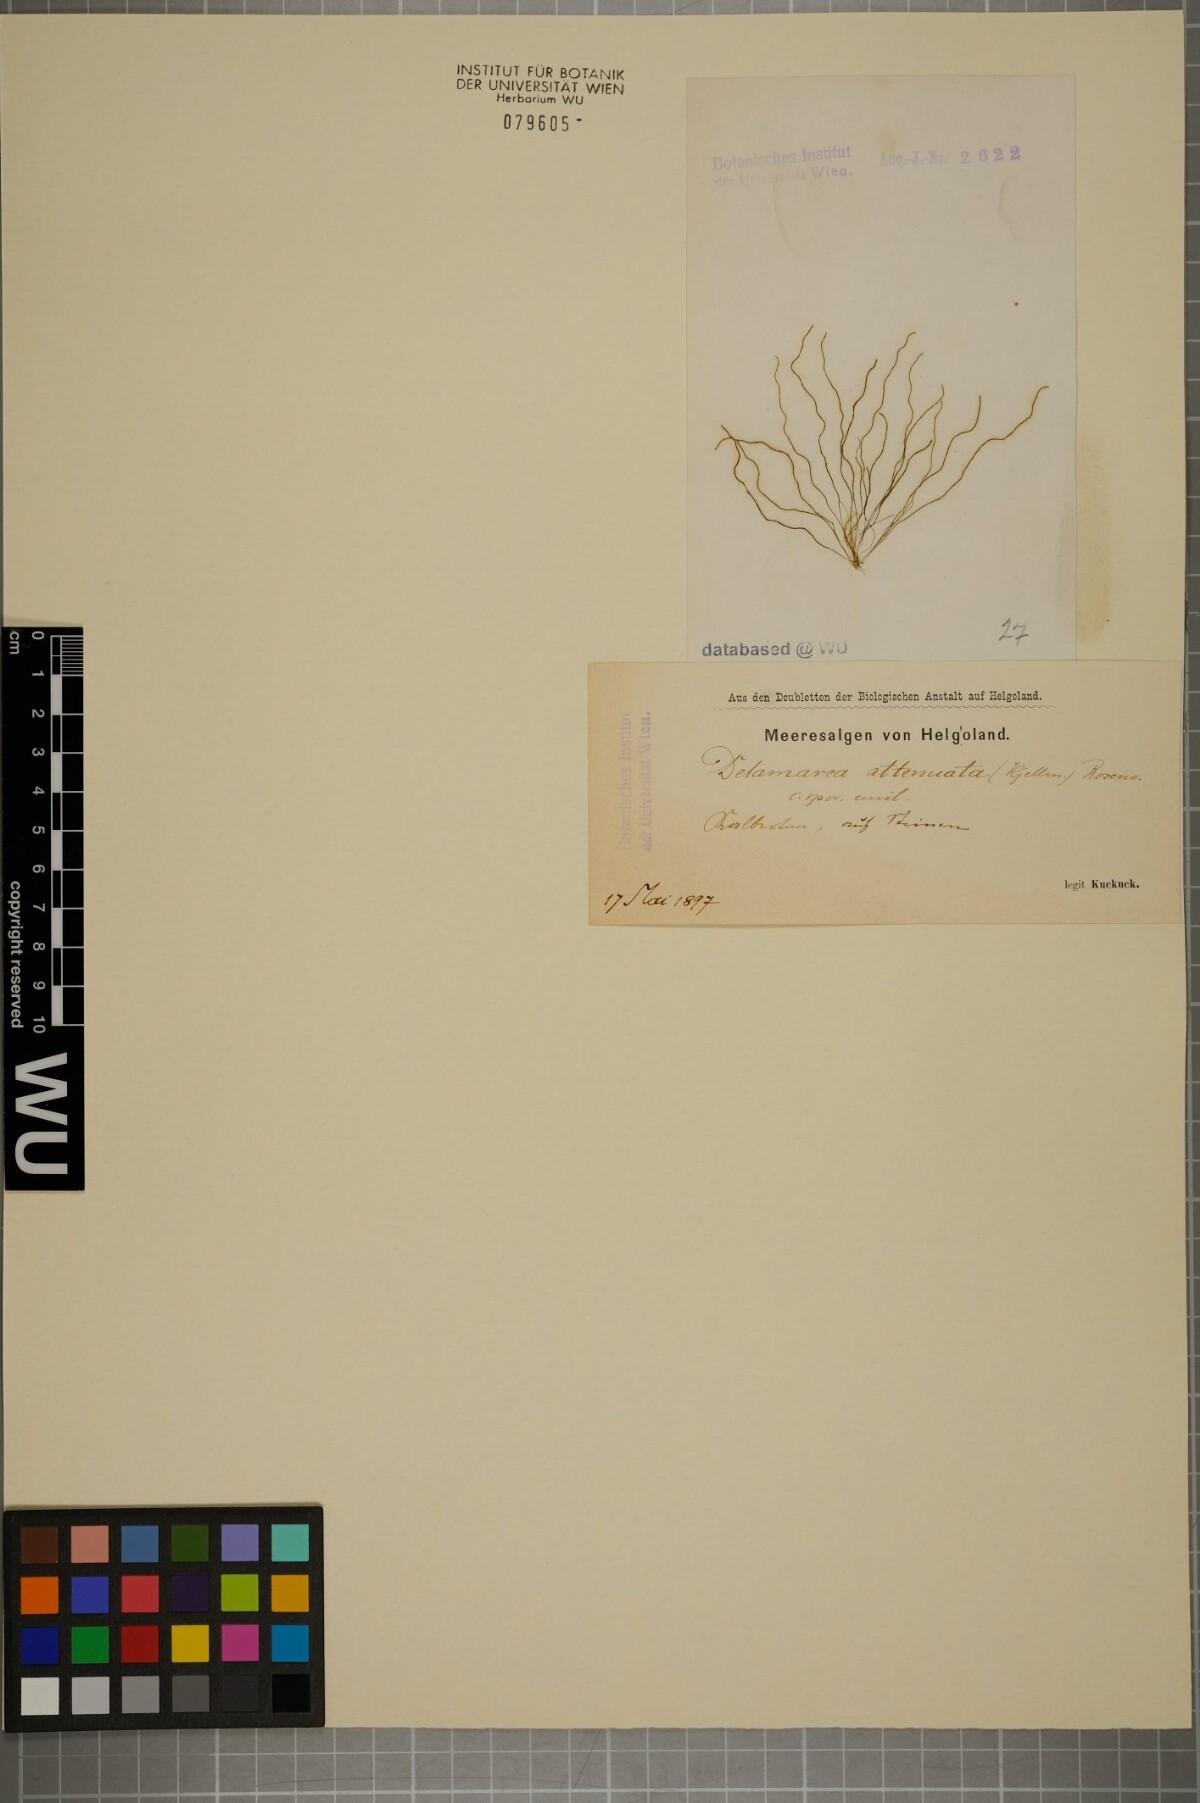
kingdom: Chromista
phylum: Ochrophyta
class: Phaeophyceae
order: Ectocarpales
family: Chordariaceae
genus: Delamarea
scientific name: Delamarea attenuata
